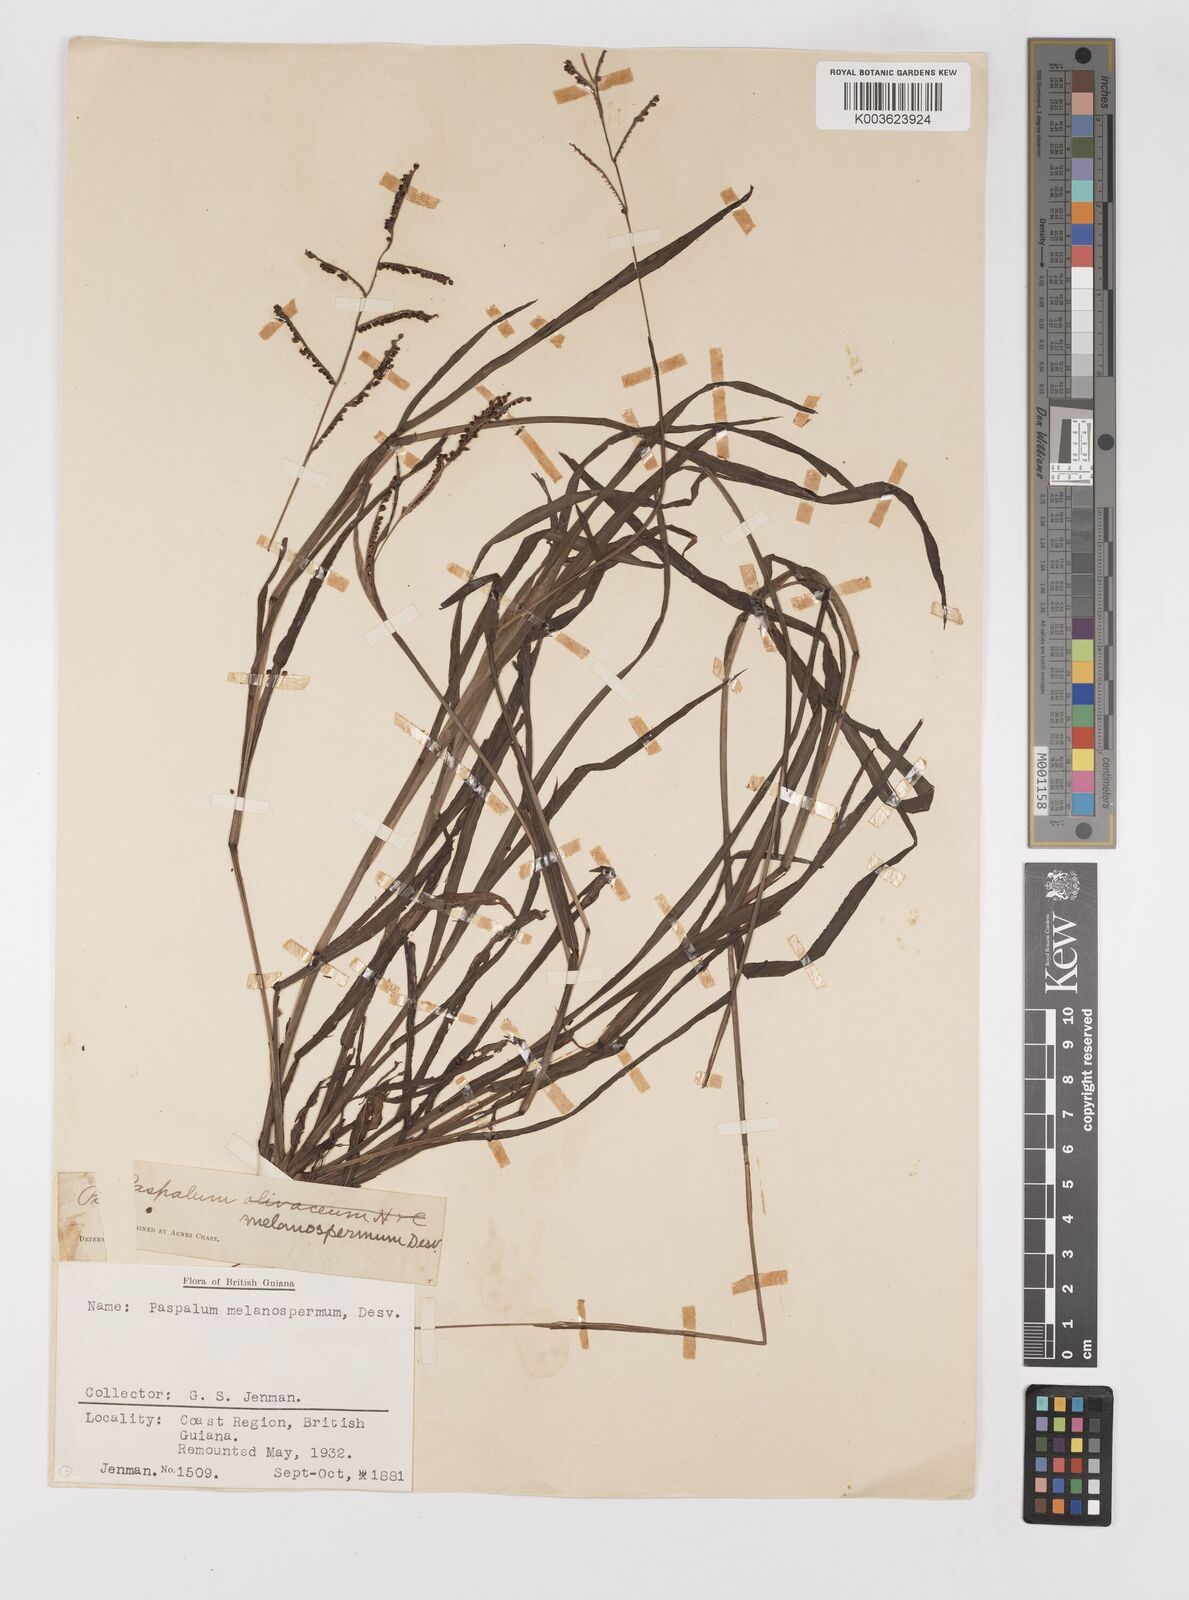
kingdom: Plantae
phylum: Tracheophyta
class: Liliopsida
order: Poales
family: Poaceae
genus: Paspalum
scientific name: Paspalum melanospermum
